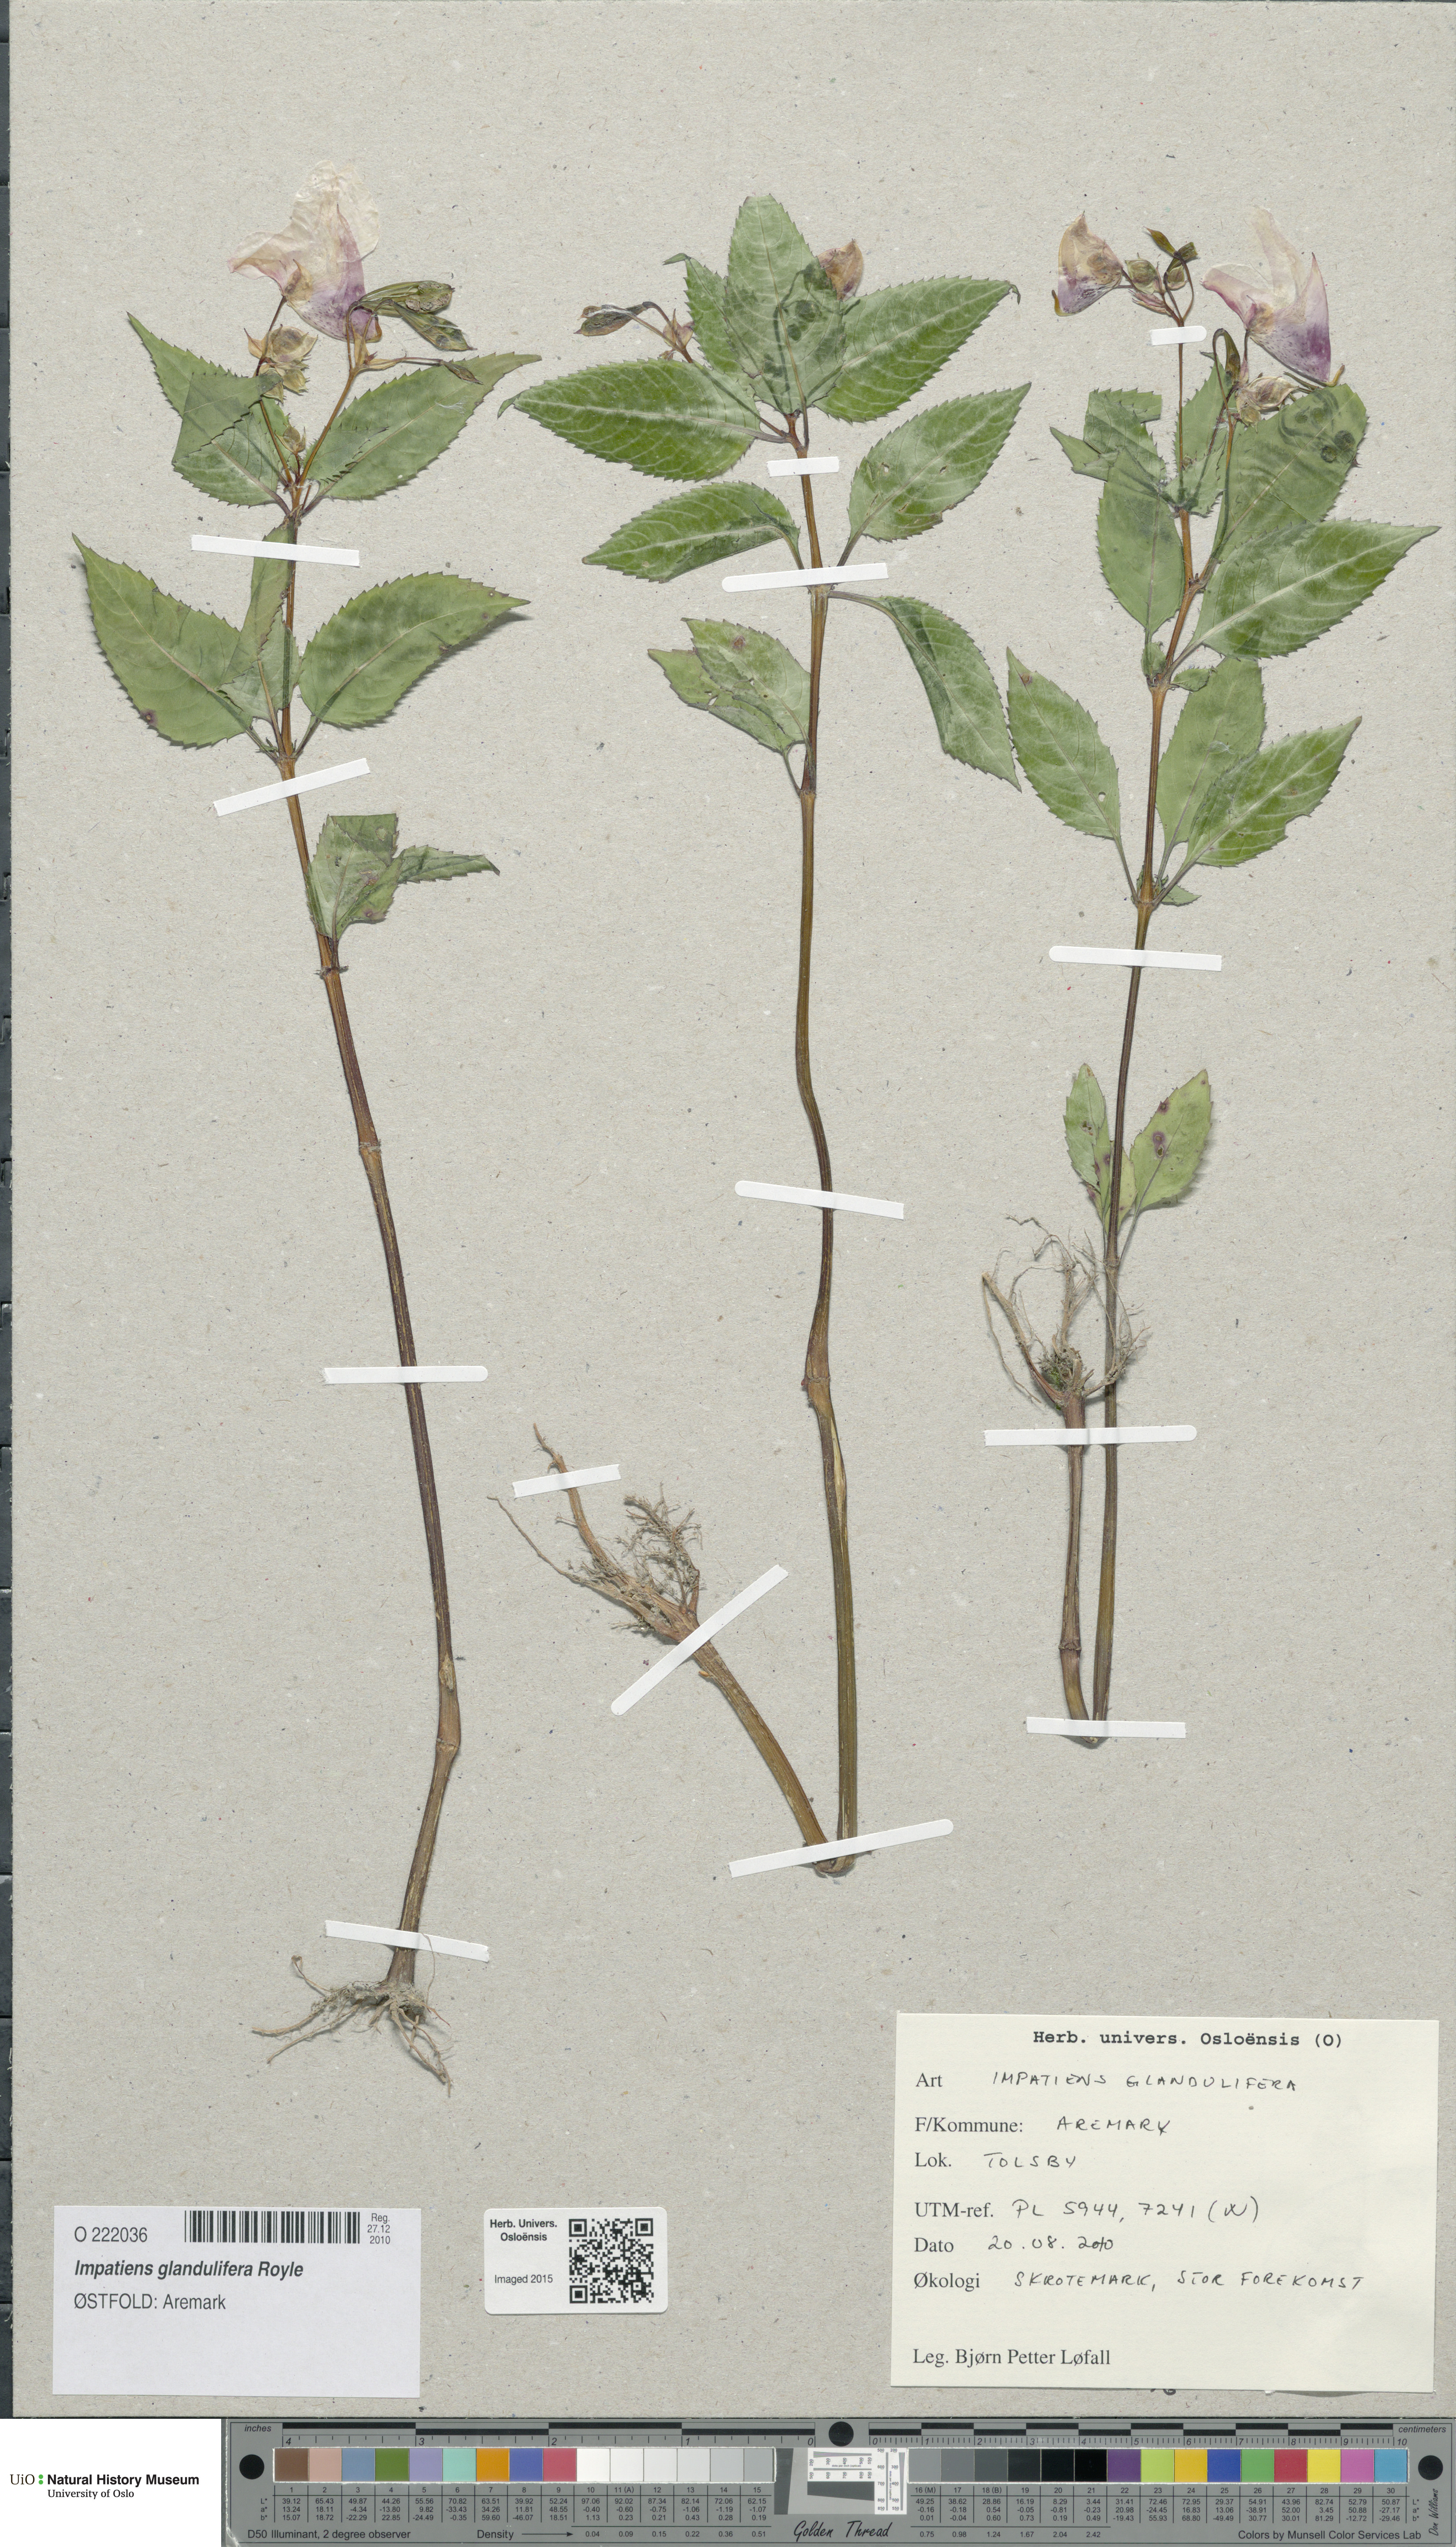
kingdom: Plantae
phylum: Tracheophyta
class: Magnoliopsida
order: Ericales
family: Balsaminaceae
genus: Impatiens
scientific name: Impatiens glandulifera
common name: Himalayan balsam
